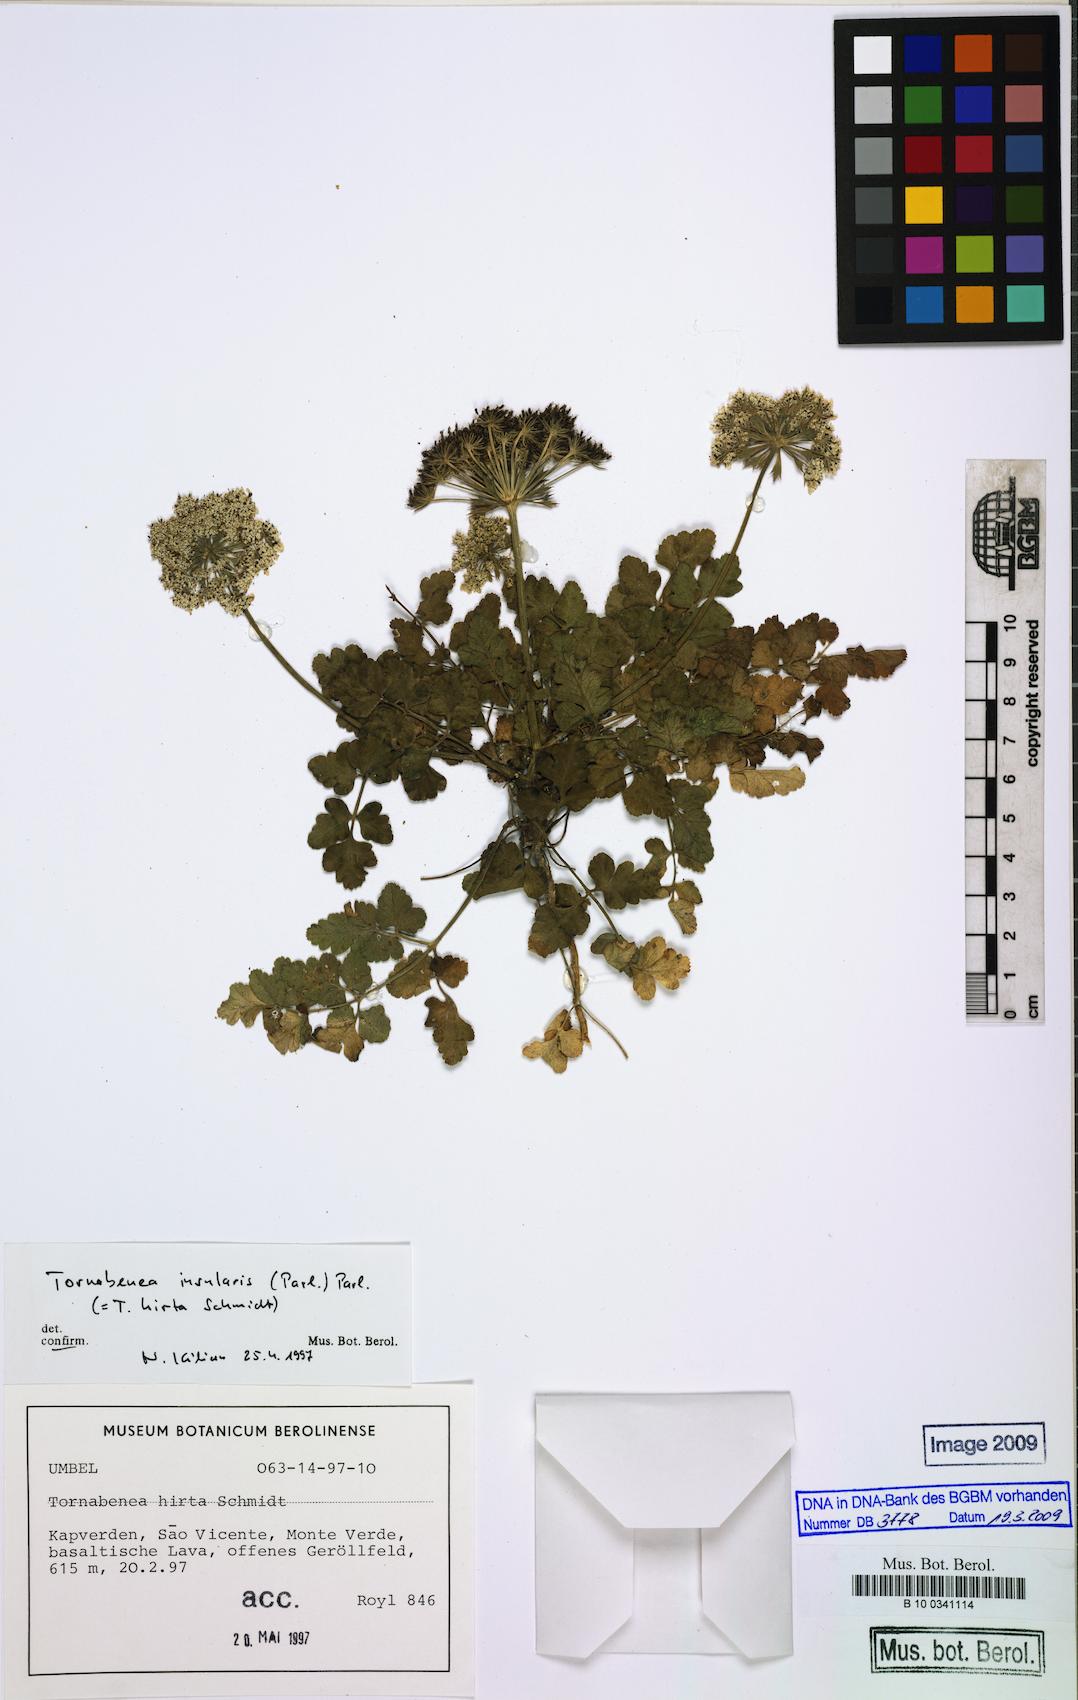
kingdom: Plantae
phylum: Tracheophyta
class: Magnoliopsida
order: Apiales
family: Apiaceae
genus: Daucus
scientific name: Daucus insularis
